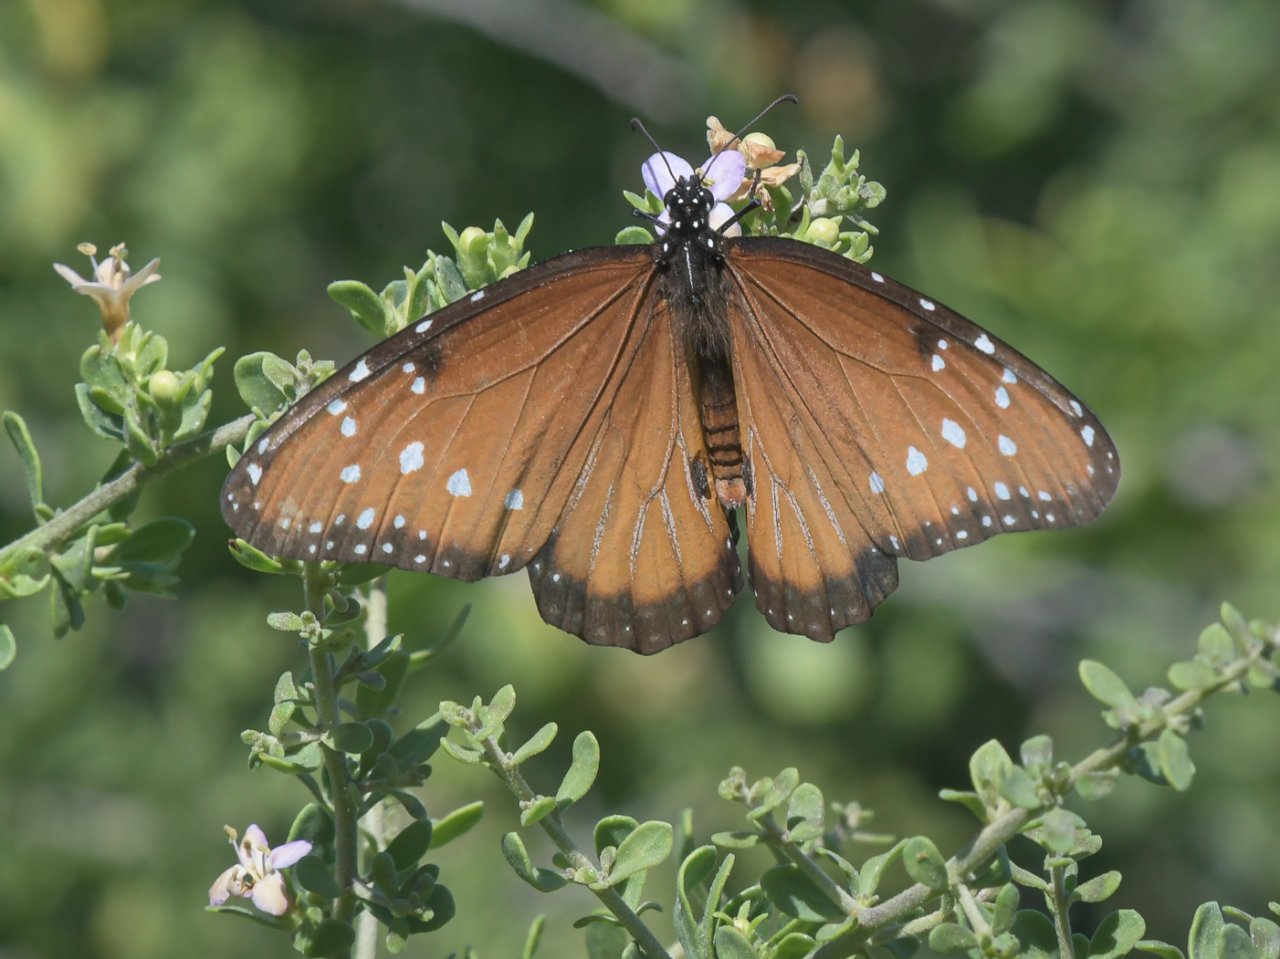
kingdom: Animalia
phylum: Arthropoda
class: Insecta
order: Lepidoptera
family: Nymphalidae
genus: Danaus
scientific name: Danaus gilippus
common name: Queen
